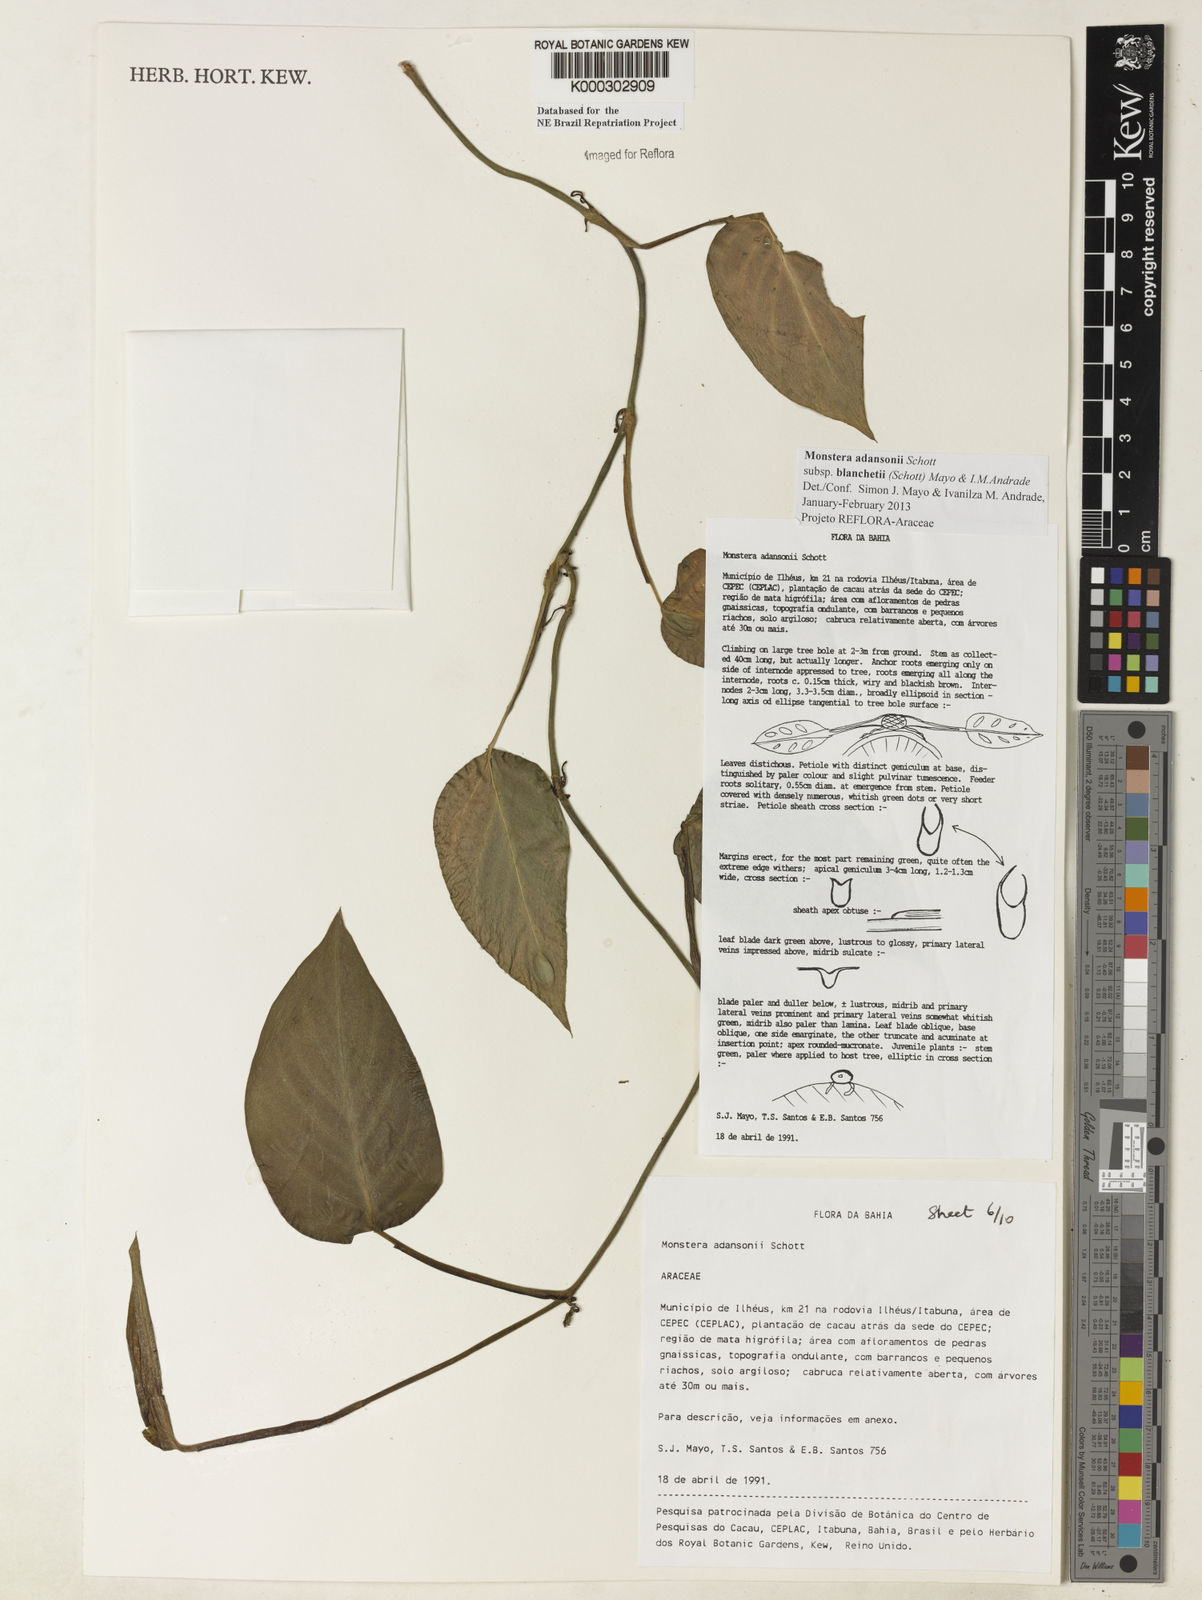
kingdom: Plantae
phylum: Tracheophyta
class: Liliopsida
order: Alismatales
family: Araceae
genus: Monstera
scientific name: Monstera adansonii
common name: Tarovine
